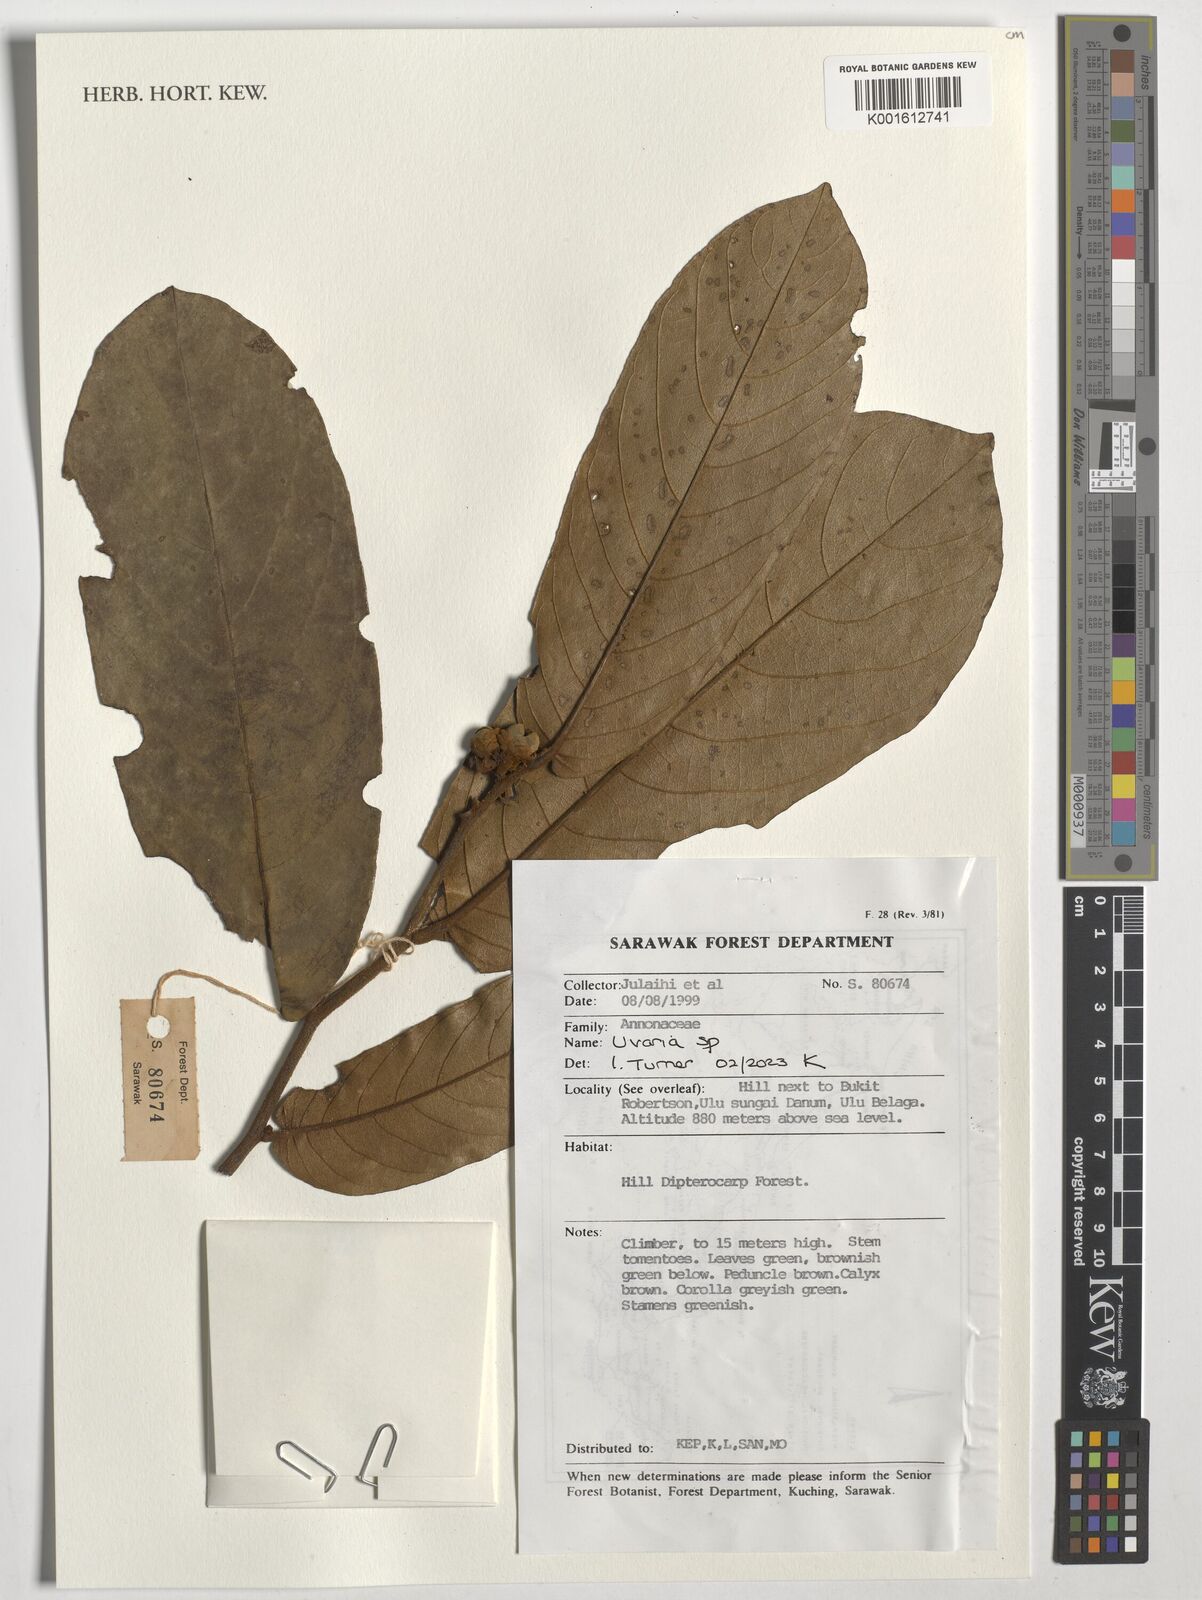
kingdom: Plantae
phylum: Tracheophyta
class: Magnoliopsida
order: Magnoliales
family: Annonaceae
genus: Uvaria
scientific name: Uvaria
